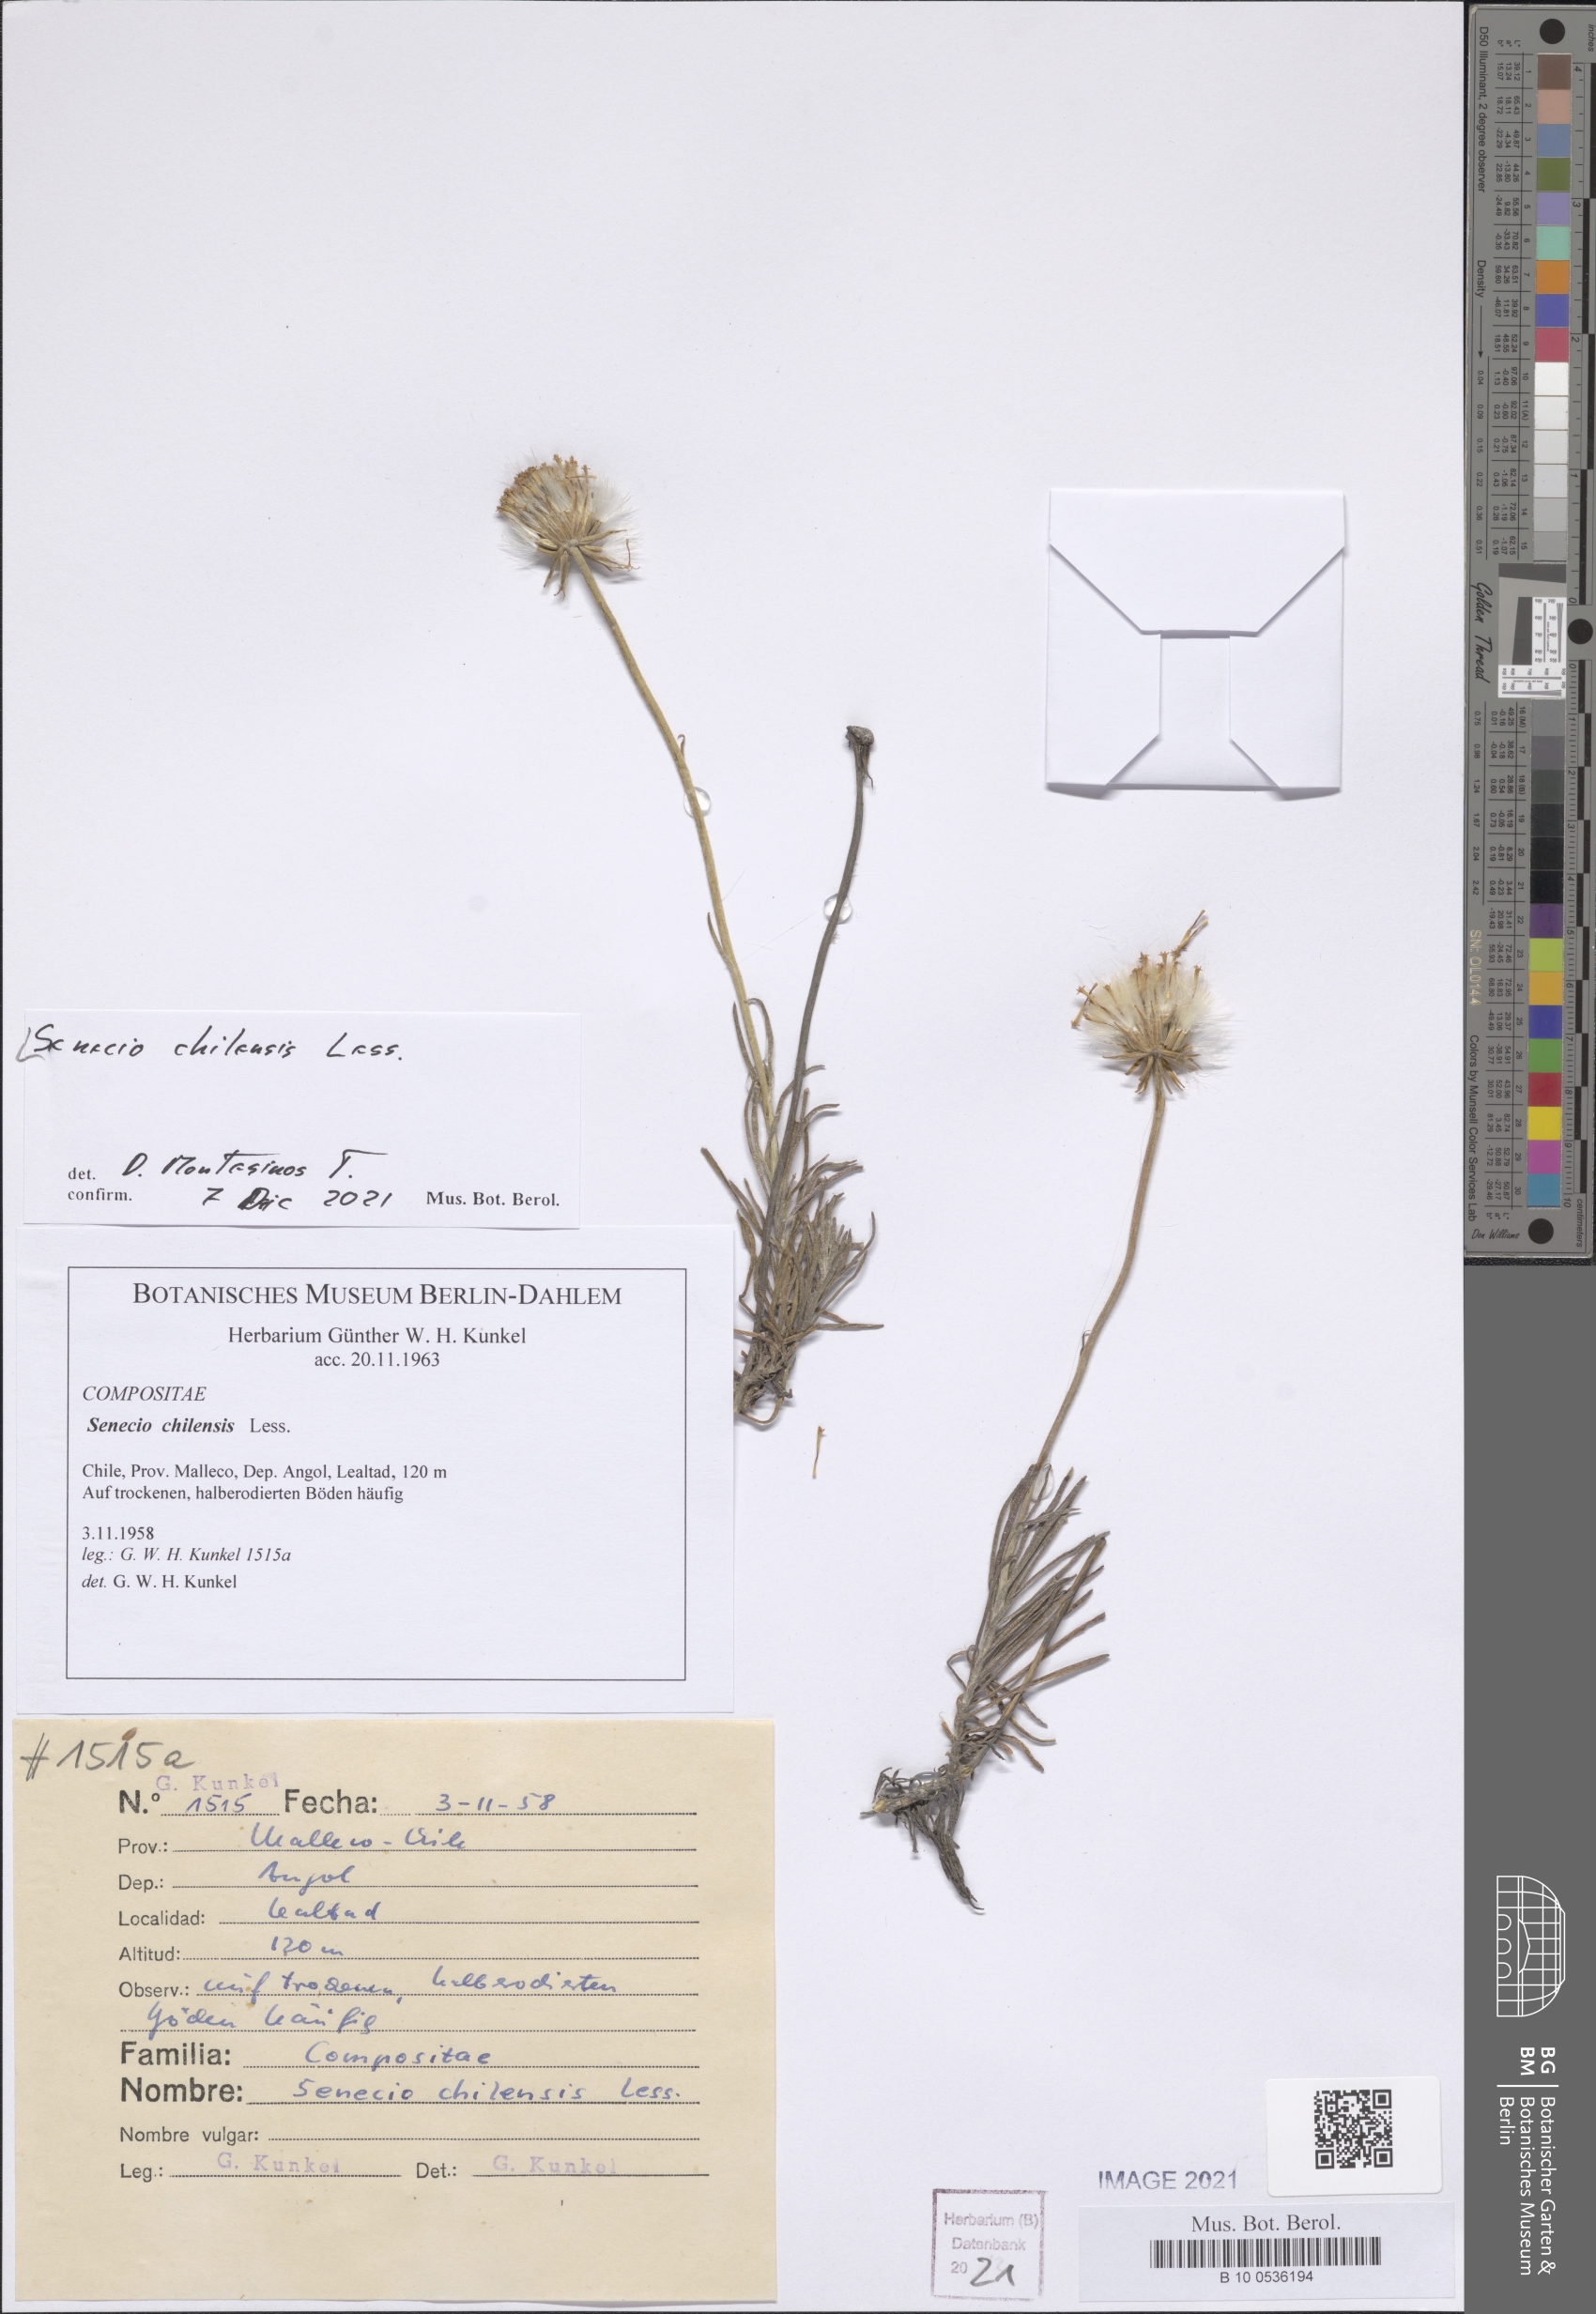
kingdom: Plantae
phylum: Tracheophyta
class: Magnoliopsida
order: Asterales
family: Asteraceae
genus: Senecio
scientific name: Senecio chilensis
